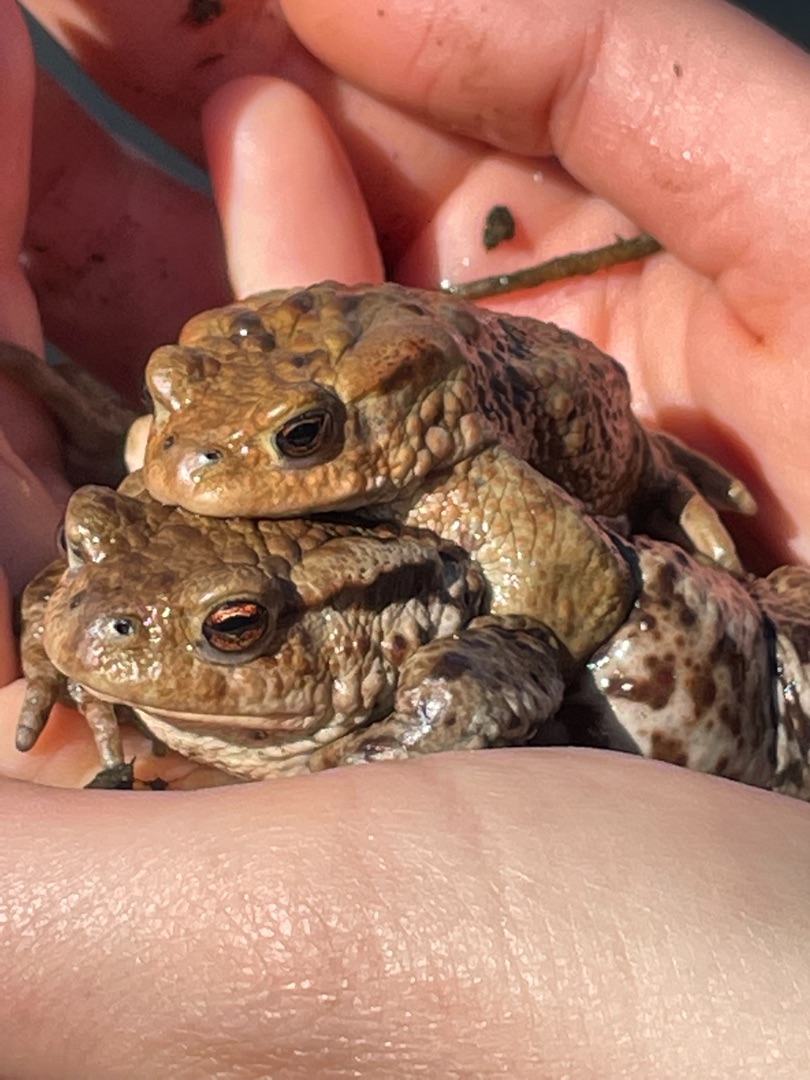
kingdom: Animalia
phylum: Chordata
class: Amphibia
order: Anura
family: Bufonidae
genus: Bufo
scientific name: Bufo bufo
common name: Skrubtudse
